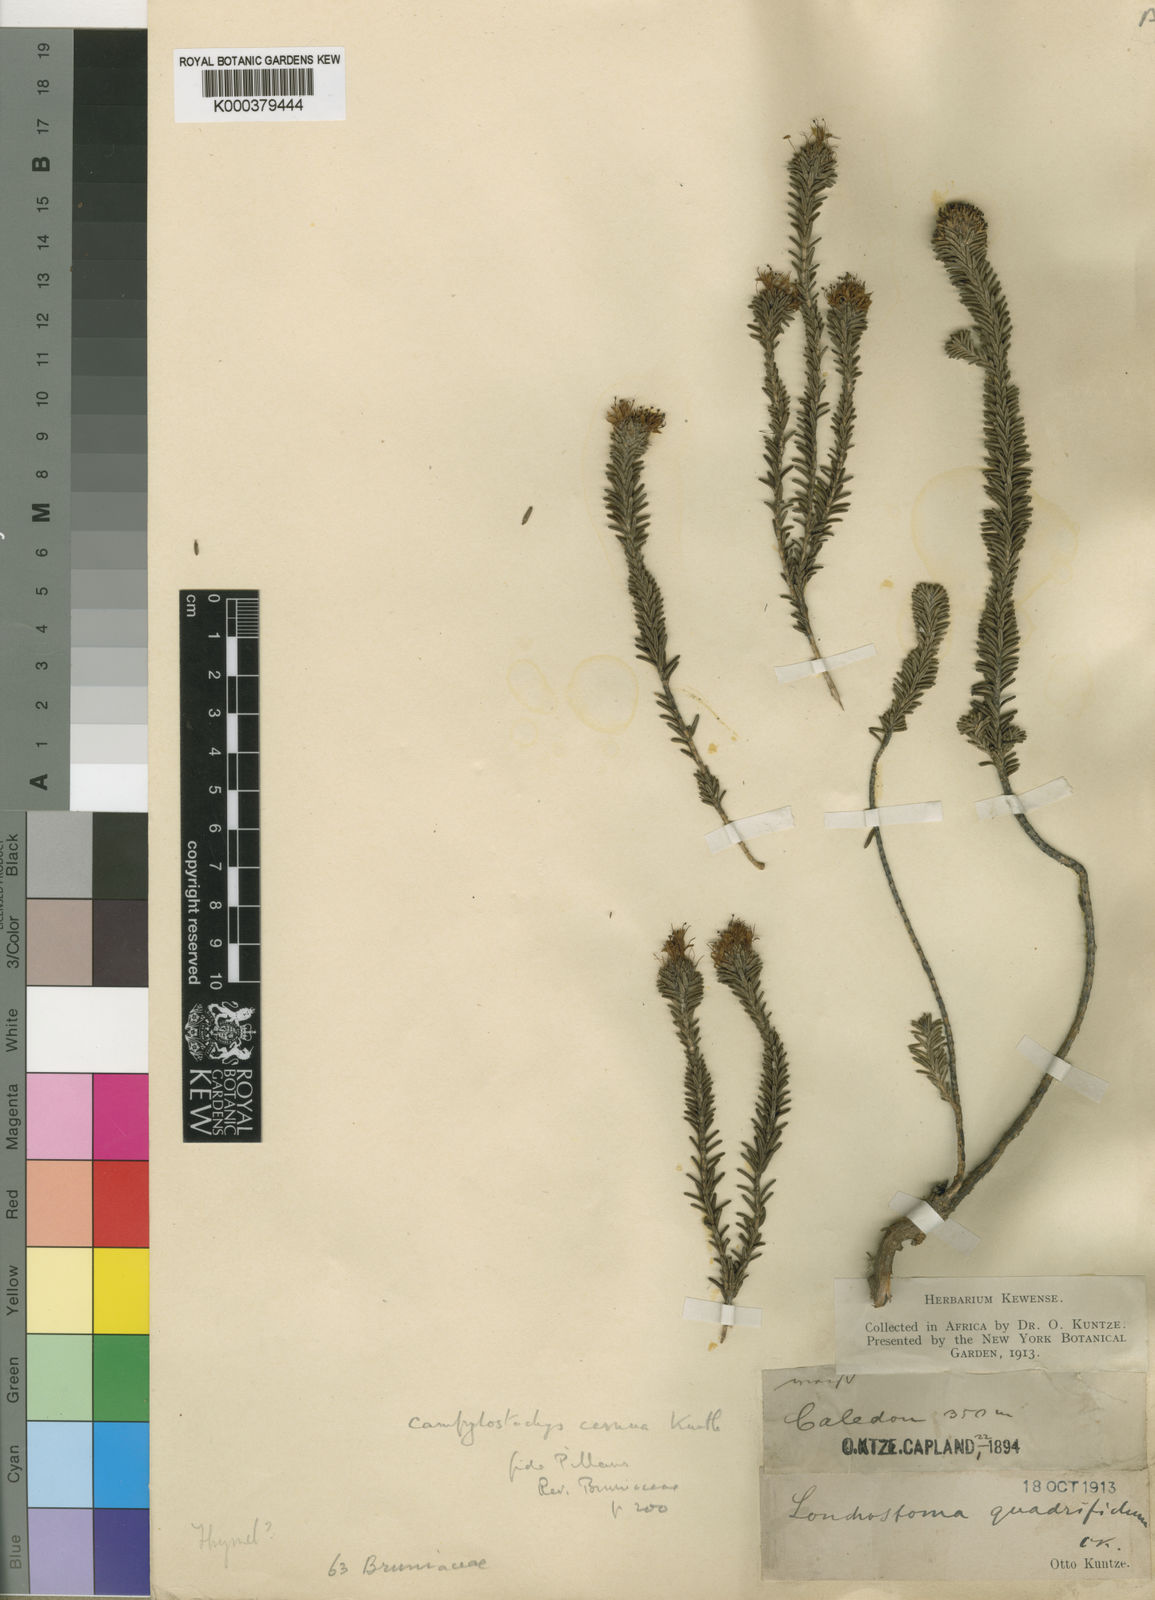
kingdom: Plantae
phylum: Tracheophyta
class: Magnoliopsida
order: Lamiales
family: Stilbaceae
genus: Campylostachys
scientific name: Campylostachys cernua
